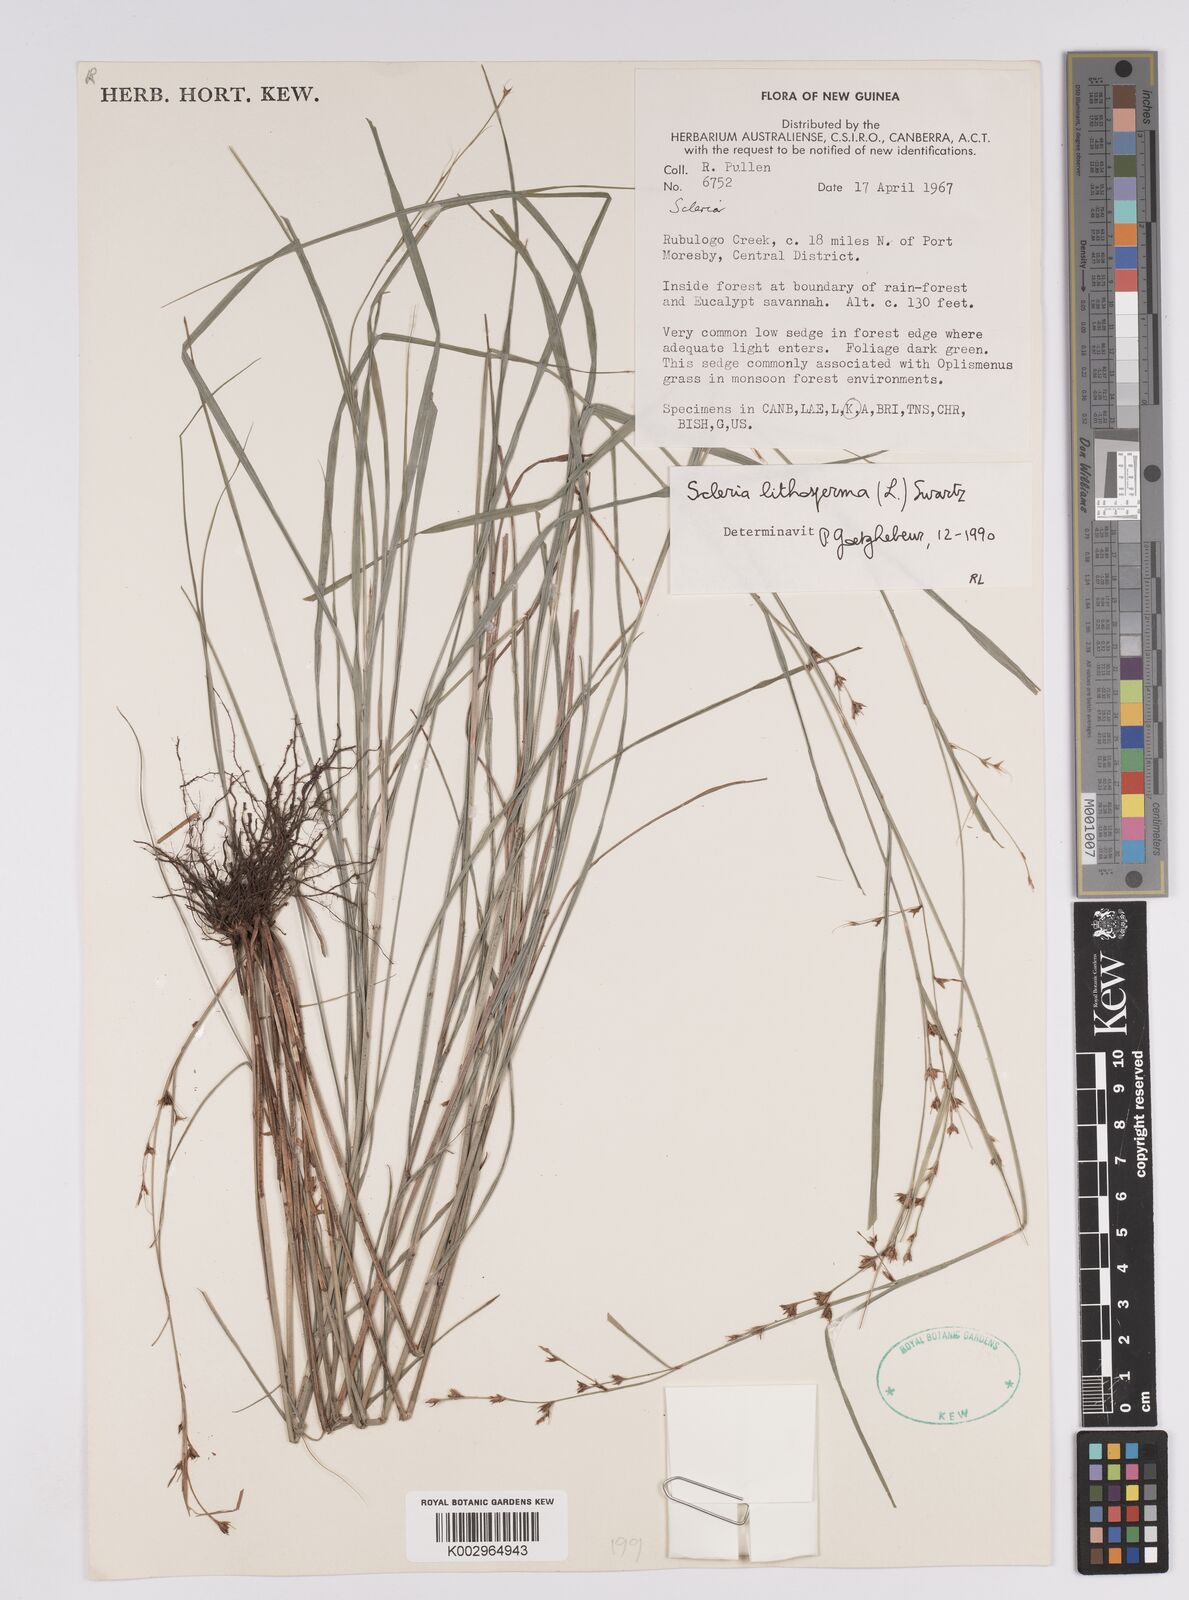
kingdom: Plantae
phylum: Tracheophyta
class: Liliopsida
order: Poales
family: Cyperaceae
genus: Scleria
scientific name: Scleria lithosperma
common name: Florida keys nut-rush
